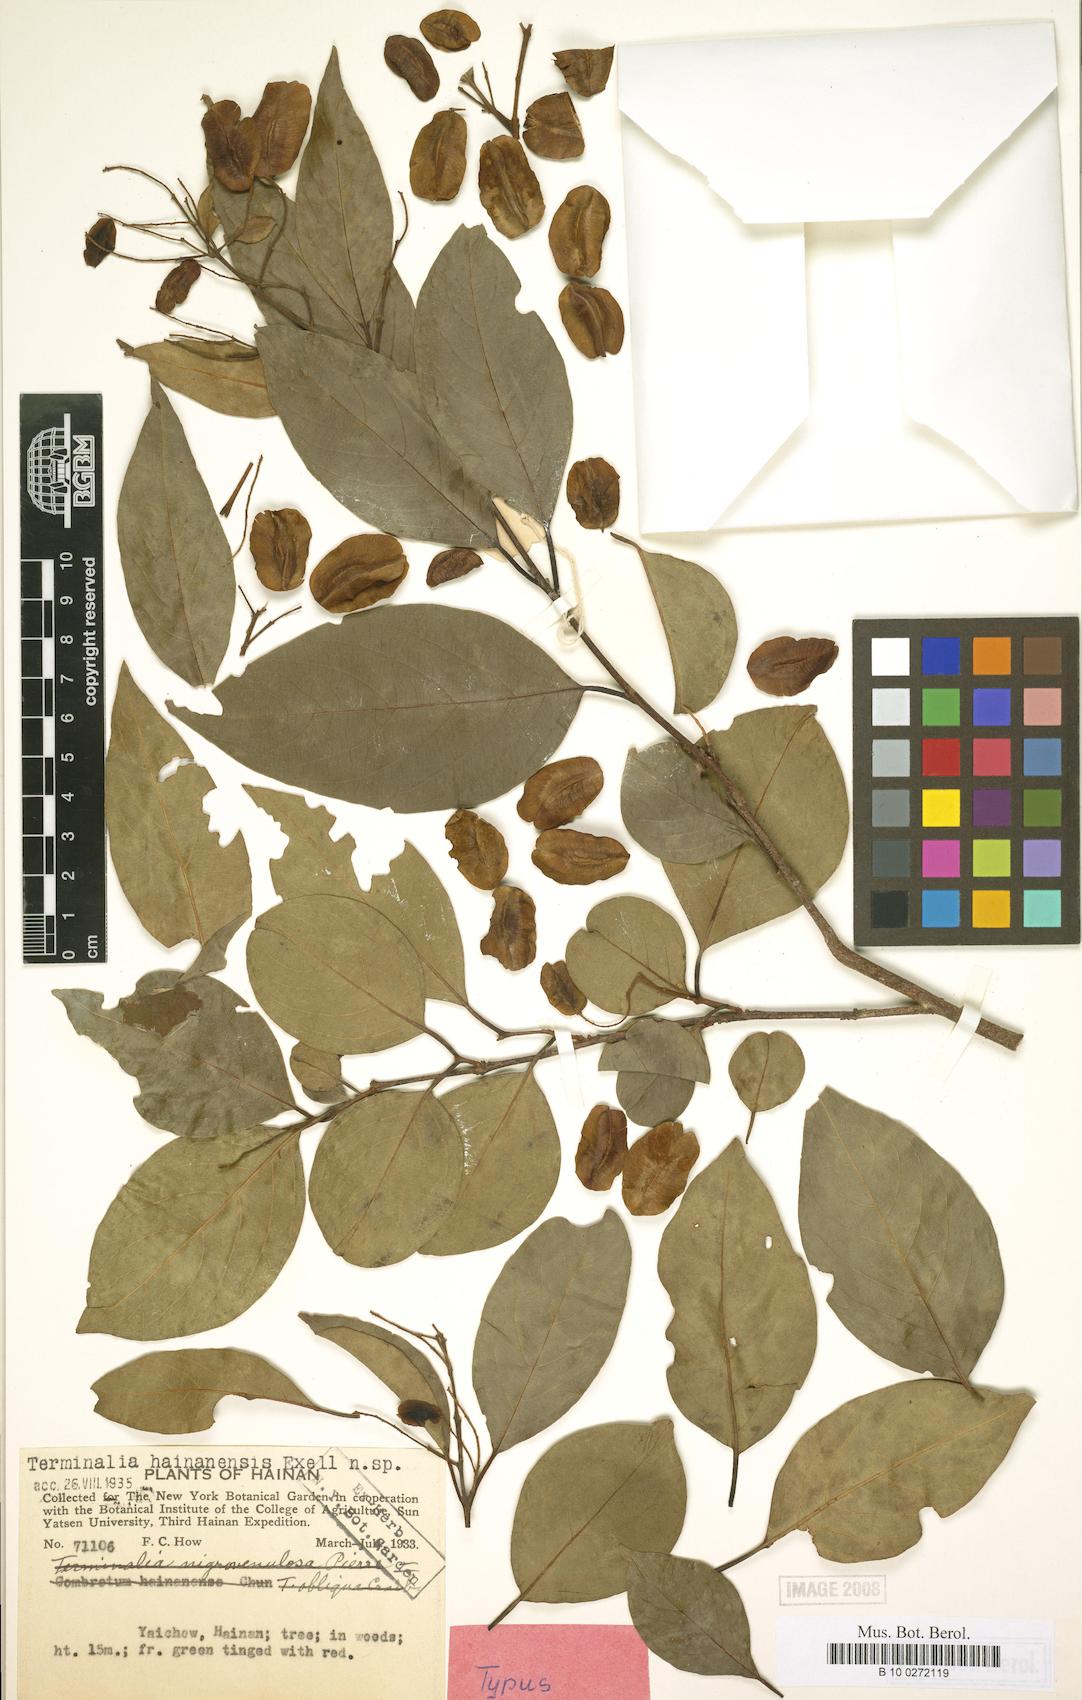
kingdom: Plantae
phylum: Tracheophyta
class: Magnoliopsida
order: Myrtales
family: Combretaceae
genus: Terminalia
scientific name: Terminalia triptera
